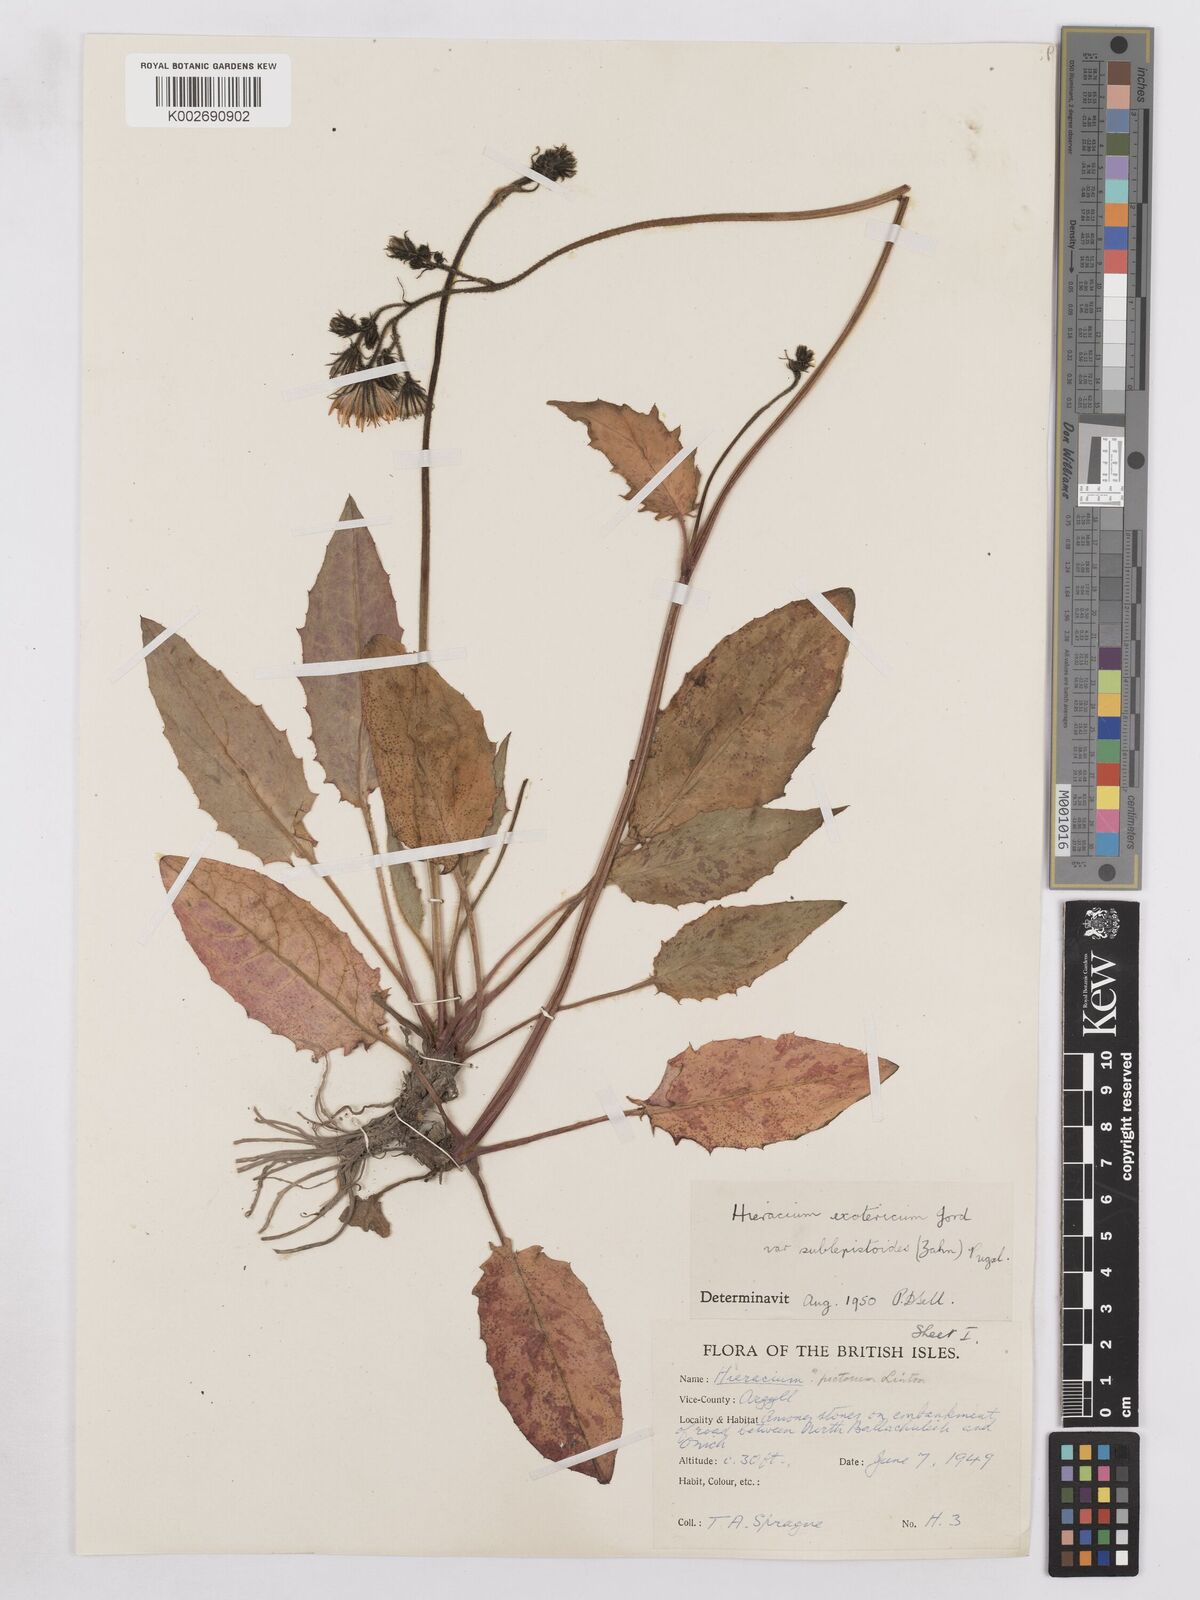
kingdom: Plantae
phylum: Tracheophyta
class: Magnoliopsida
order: Asterales
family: Asteraceae
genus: Hieracium
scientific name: Hieracium murorum
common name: Wall hawkweed
